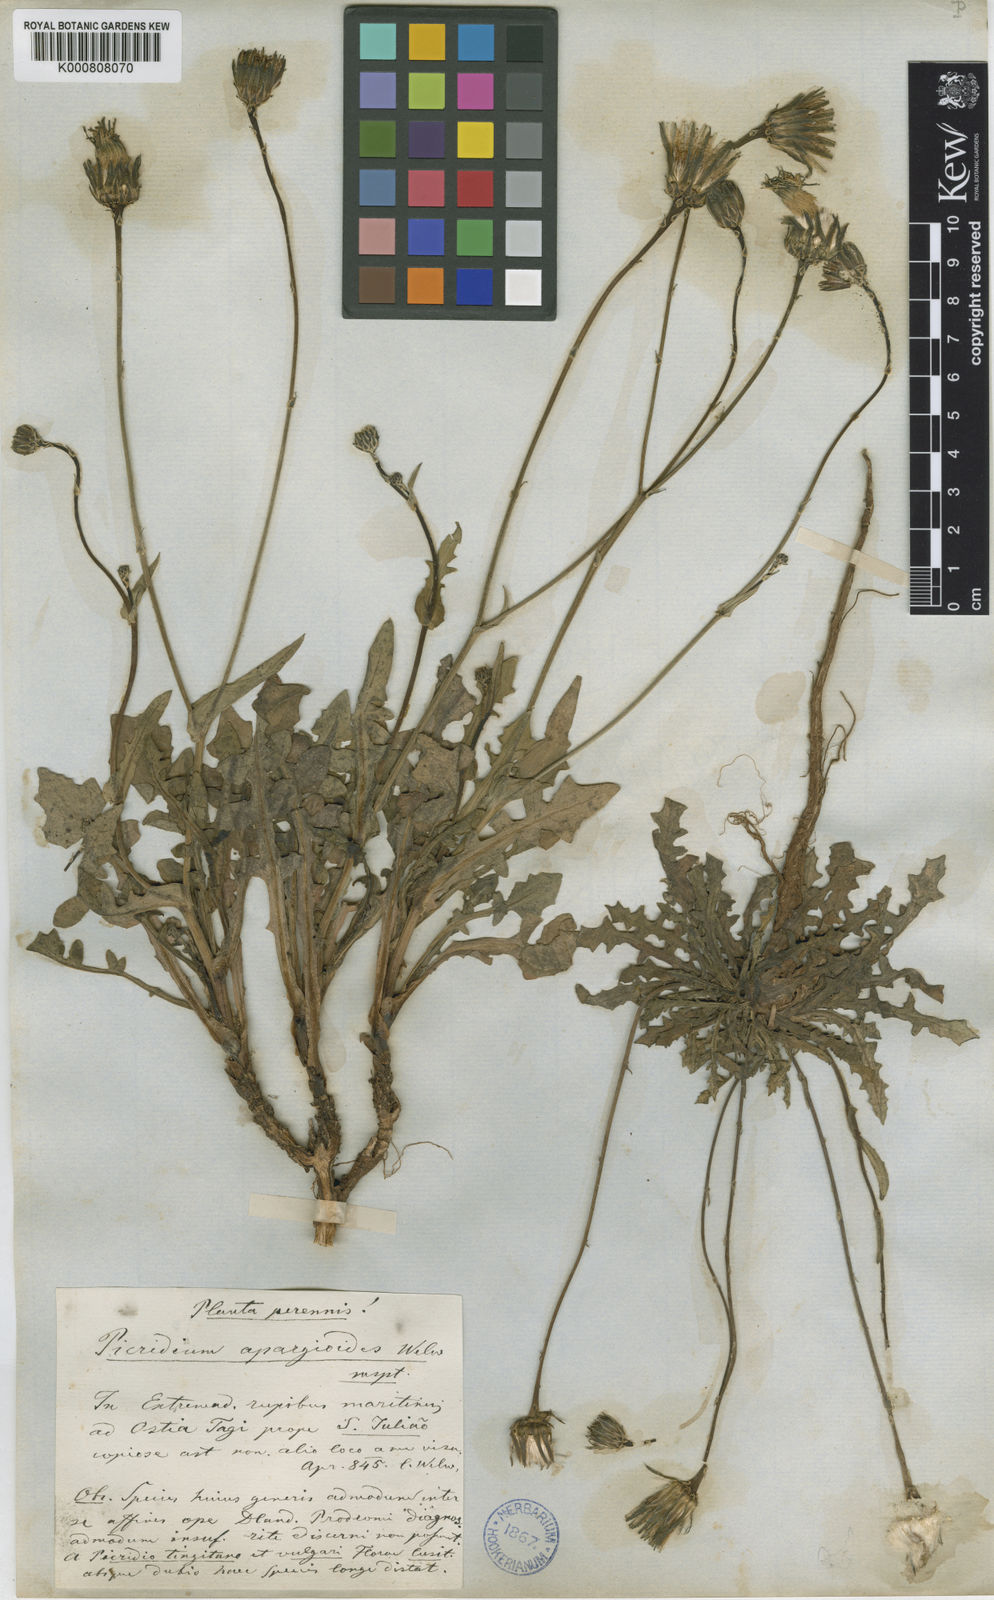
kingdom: Plantae
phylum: Tracheophyta
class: Magnoliopsida
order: Asterales
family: Asteraceae
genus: Reichardia
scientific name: Reichardia intermedia
